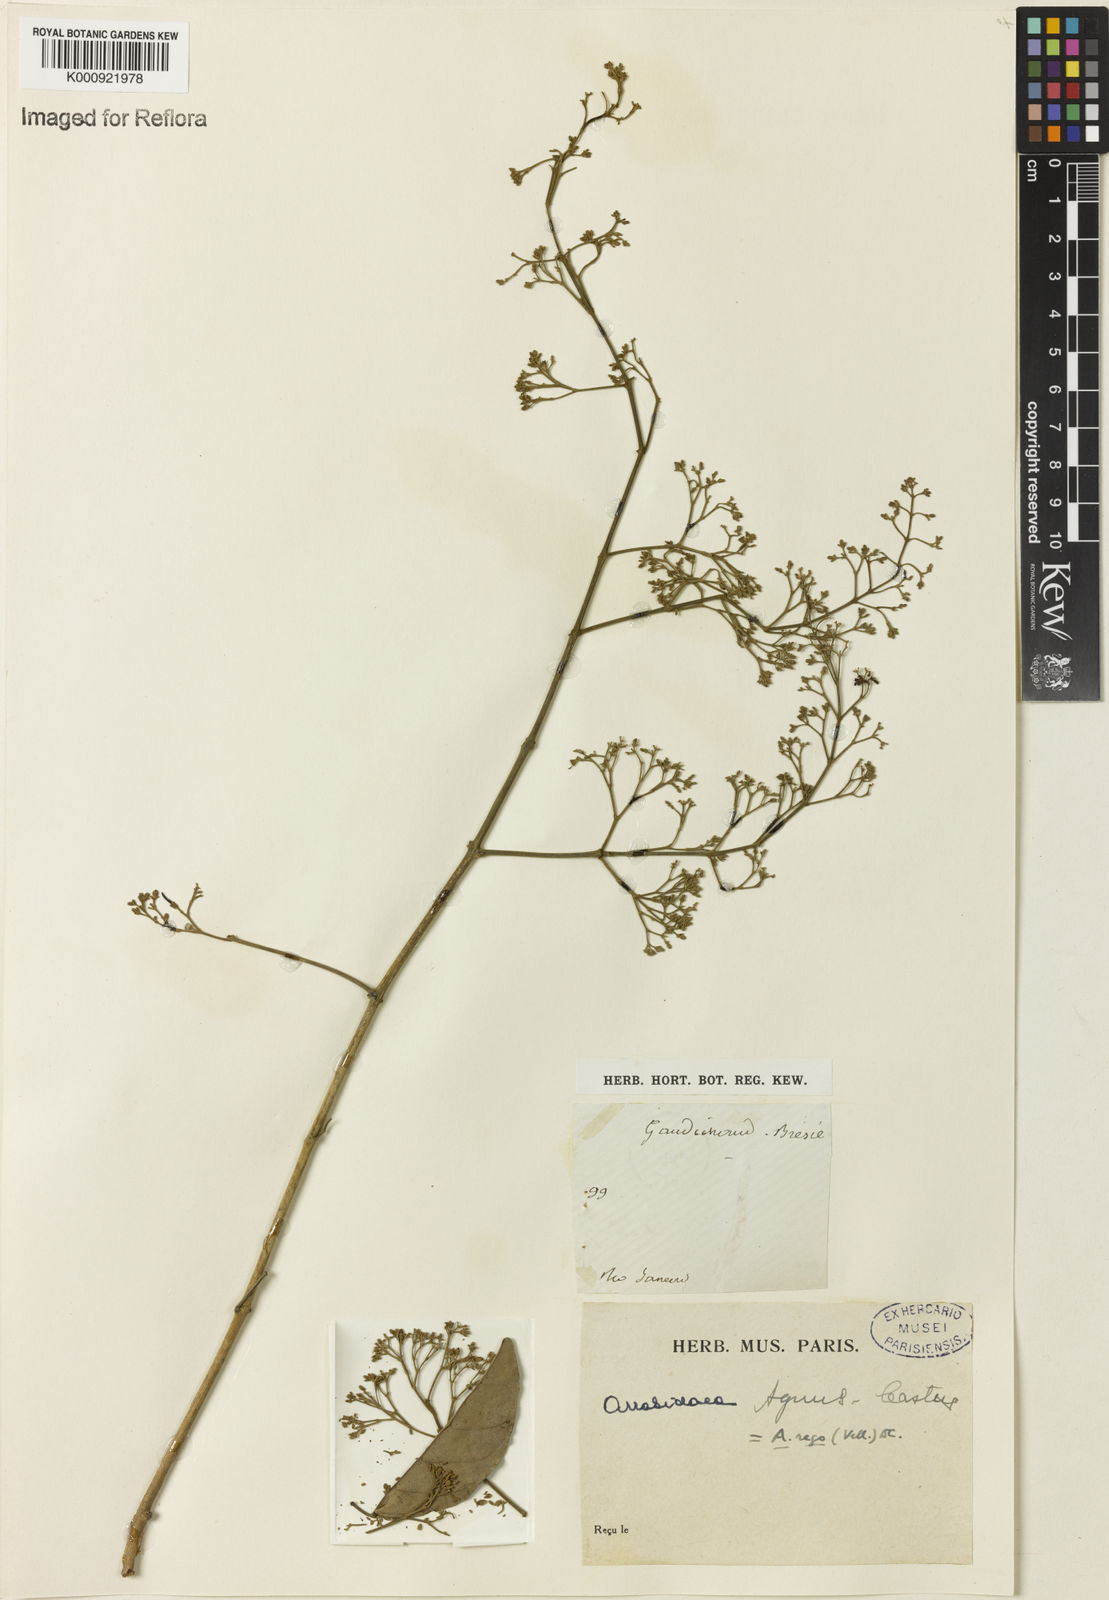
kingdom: Plantae
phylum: Tracheophyta
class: Magnoliopsida
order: Lamiales
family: Bignoniaceae
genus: Fridericia
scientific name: Fridericia rego
